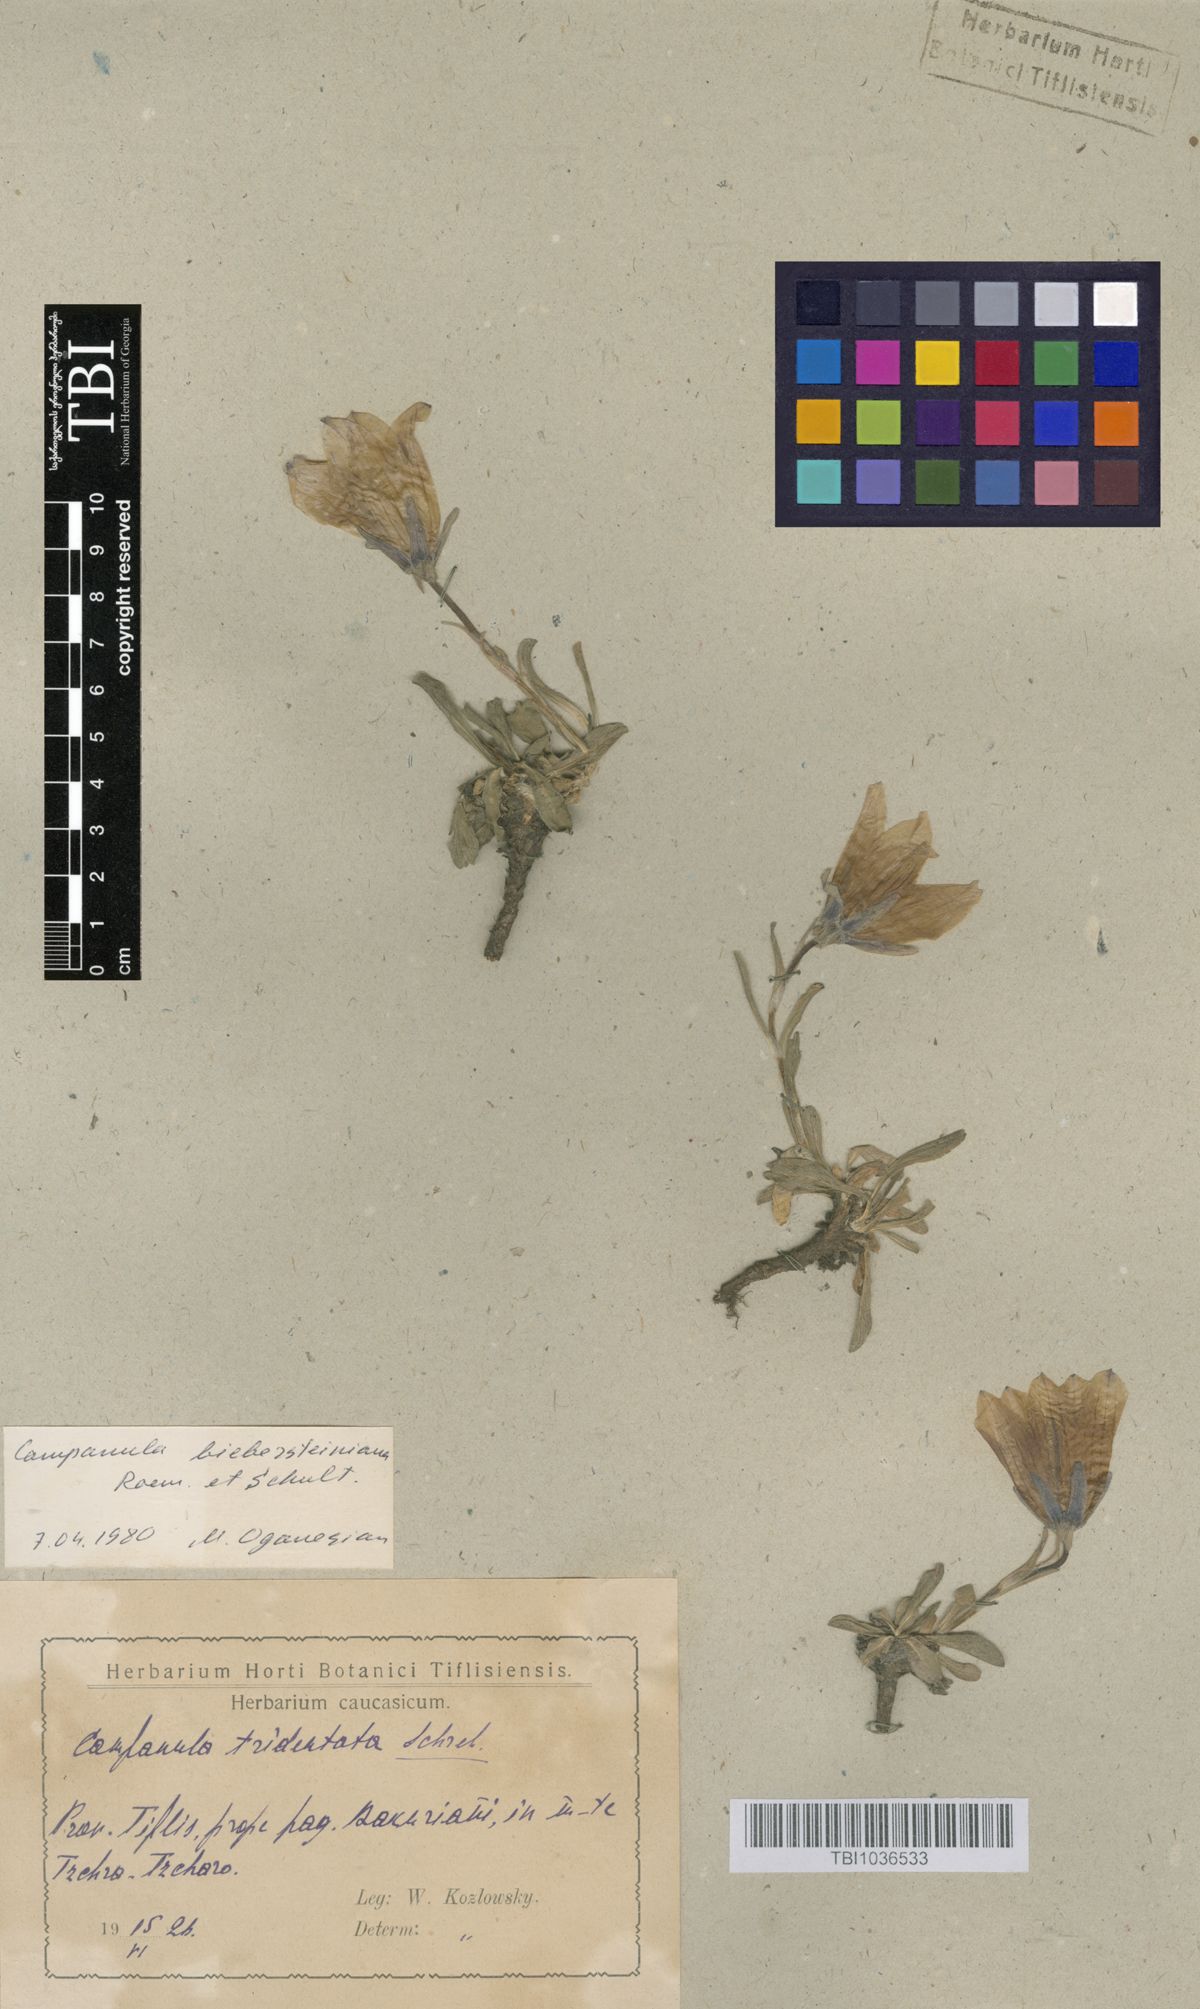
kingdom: Plantae
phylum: Tracheophyta
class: Magnoliopsida
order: Asterales
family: Campanulaceae
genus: Campanula
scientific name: Campanula tridentata
